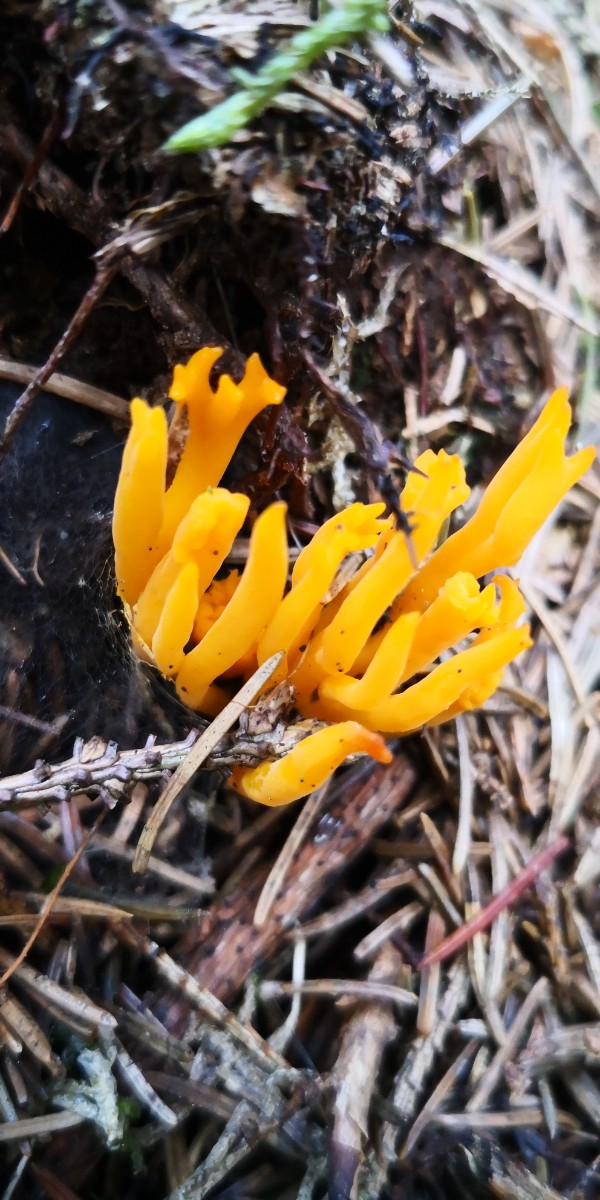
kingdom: Fungi
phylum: Basidiomycota
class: Dacrymycetes
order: Dacrymycetales
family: Dacrymycetaceae
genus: Calocera
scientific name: Calocera viscosa
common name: almindelig guldgaffel
